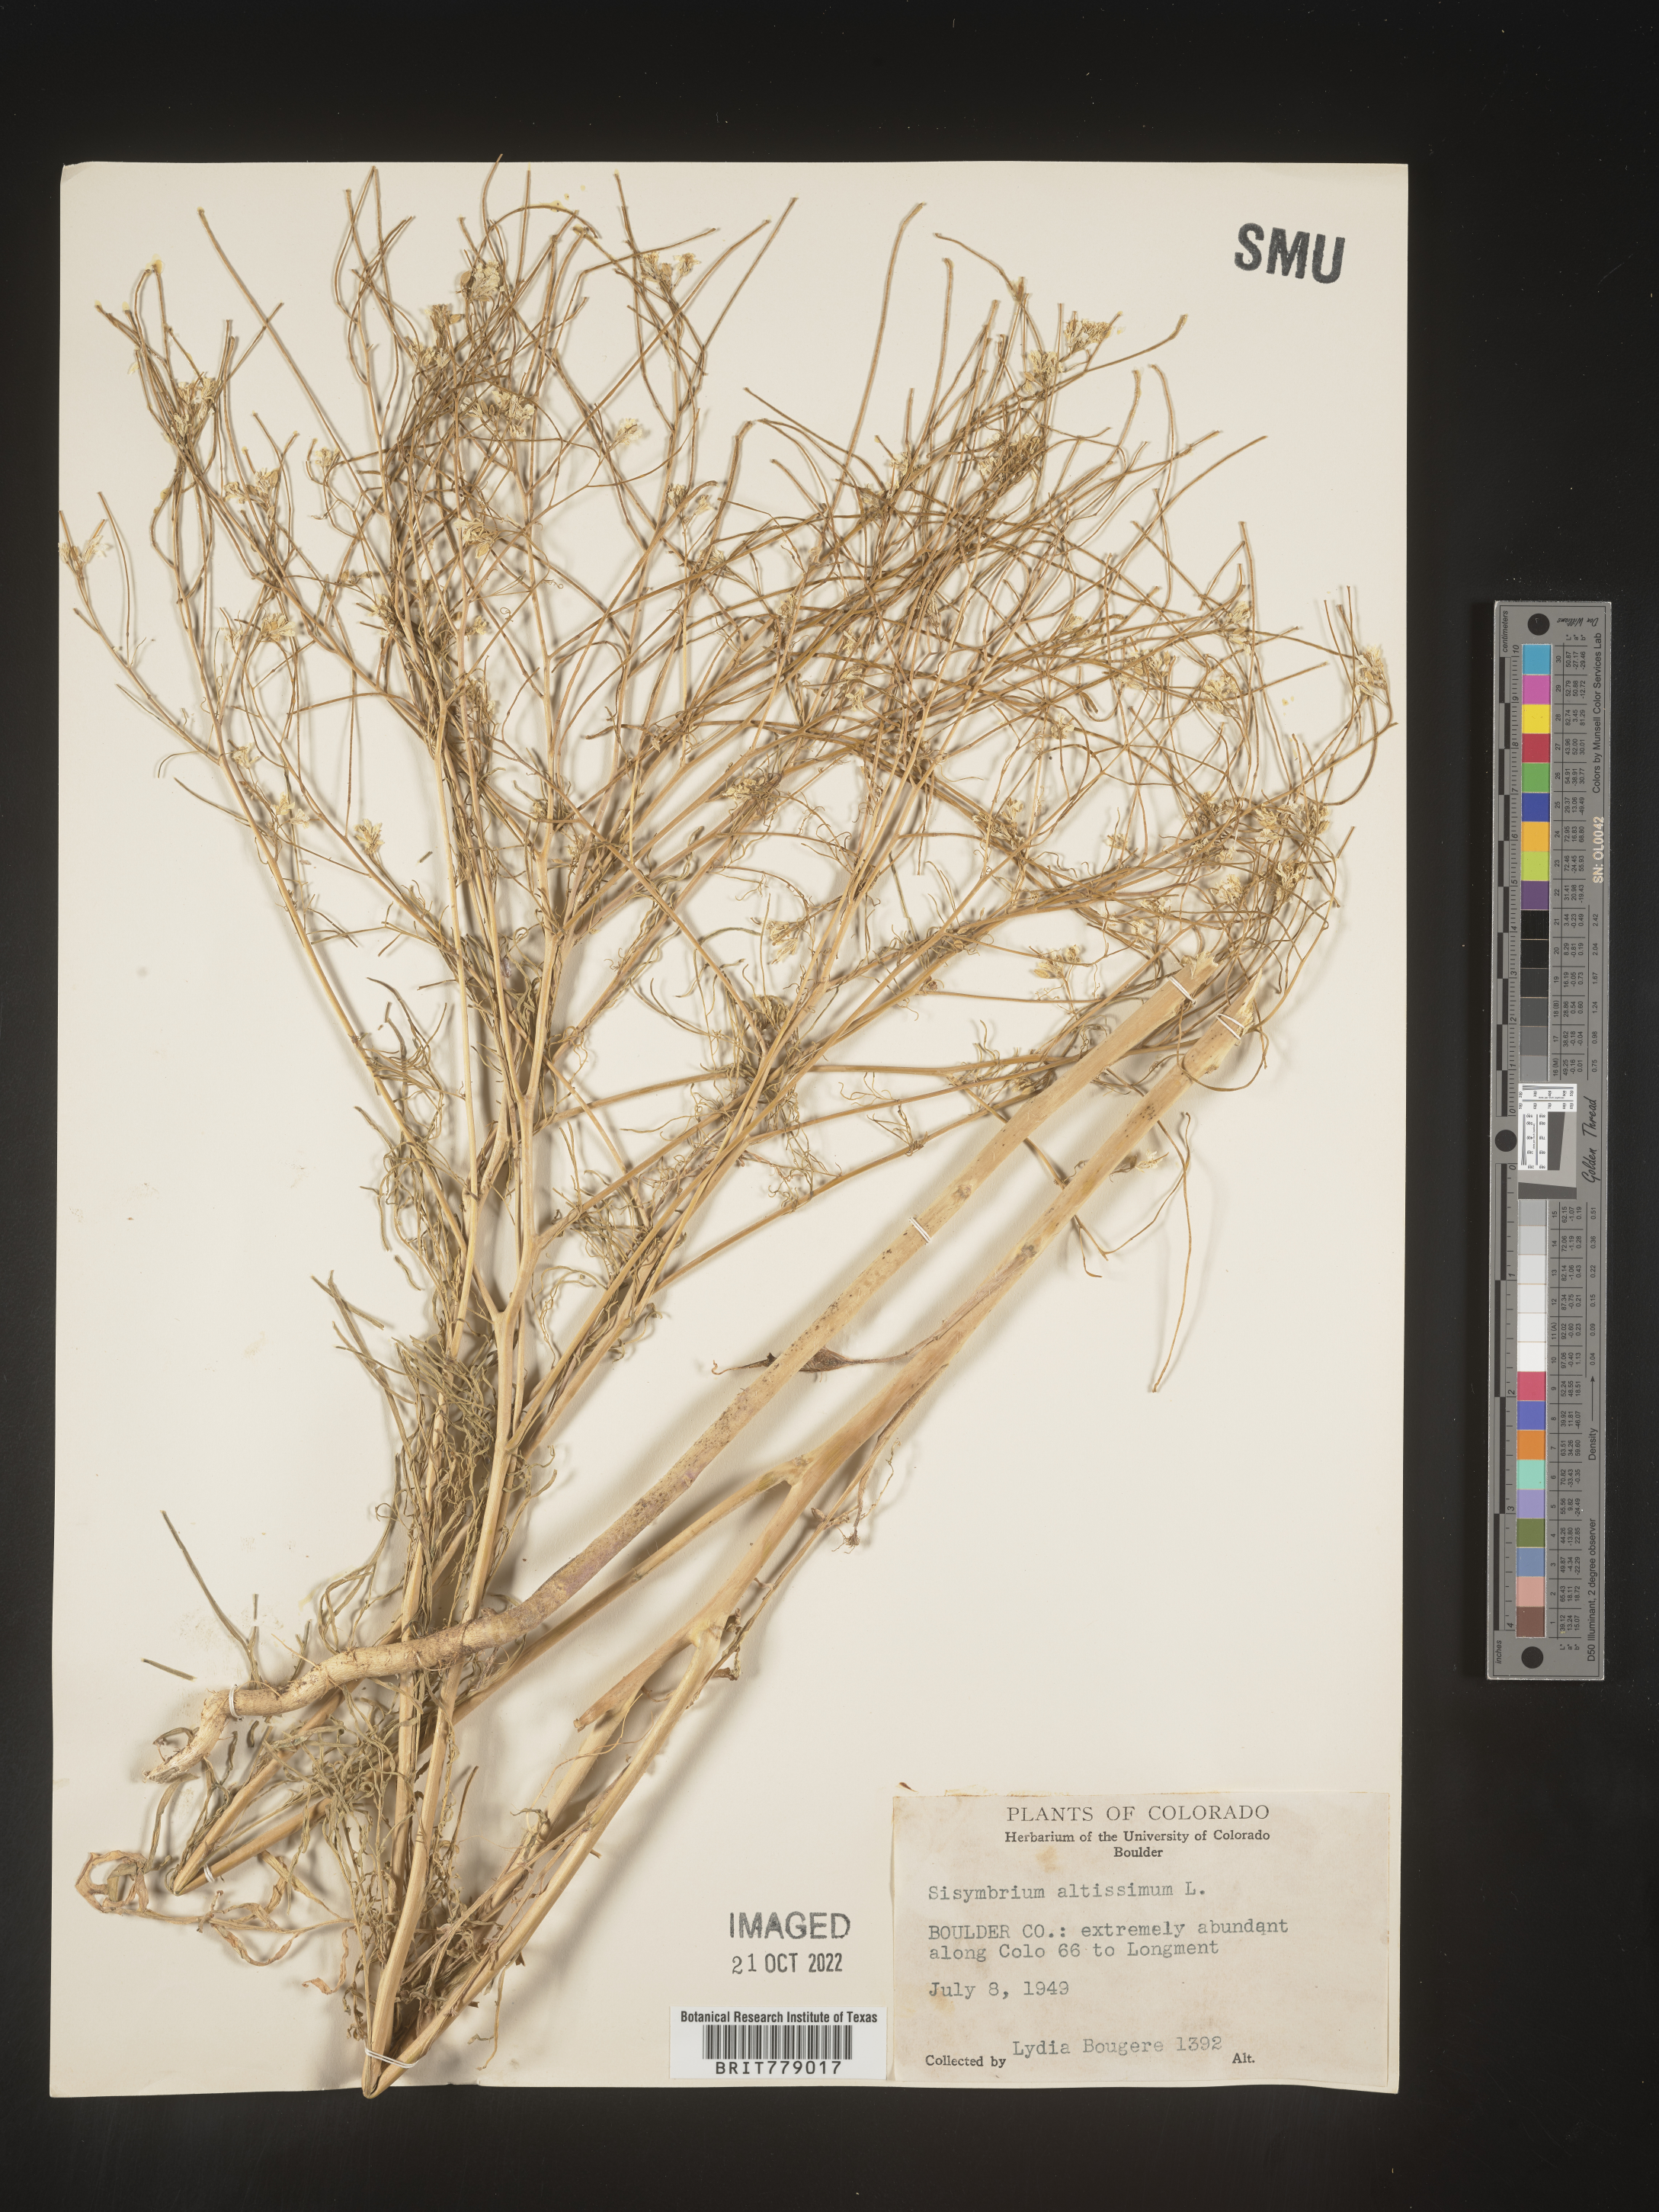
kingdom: Plantae
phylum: Tracheophyta
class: Magnoliopsida
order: Brassicales
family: Brassicaceae
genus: Sisymbrium
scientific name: Sisymbrium altissimum
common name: Tall rocket
